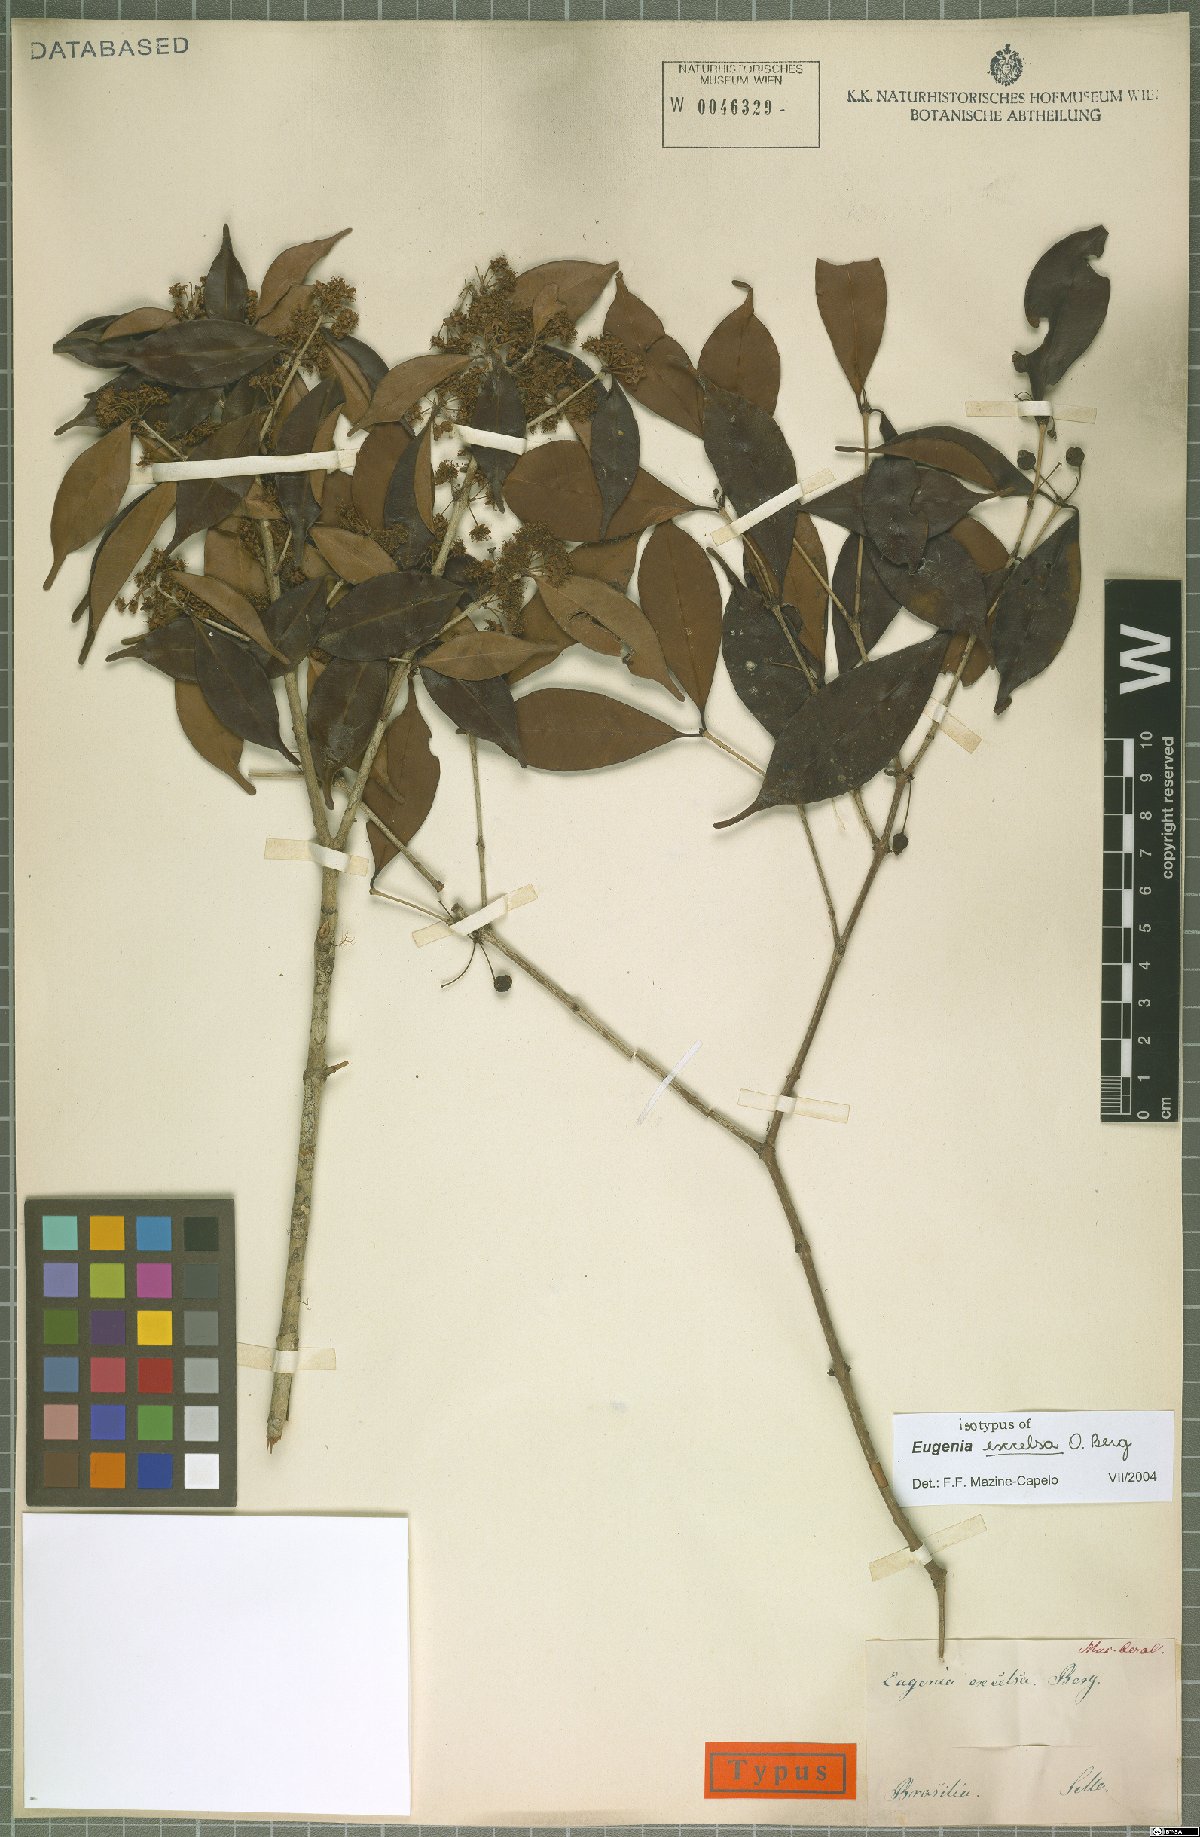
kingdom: Plantae
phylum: Tracheophyta
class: Magnoliopsida
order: Myrtales
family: Myrtaceae
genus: Eugenia
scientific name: Eugenia excelsa
